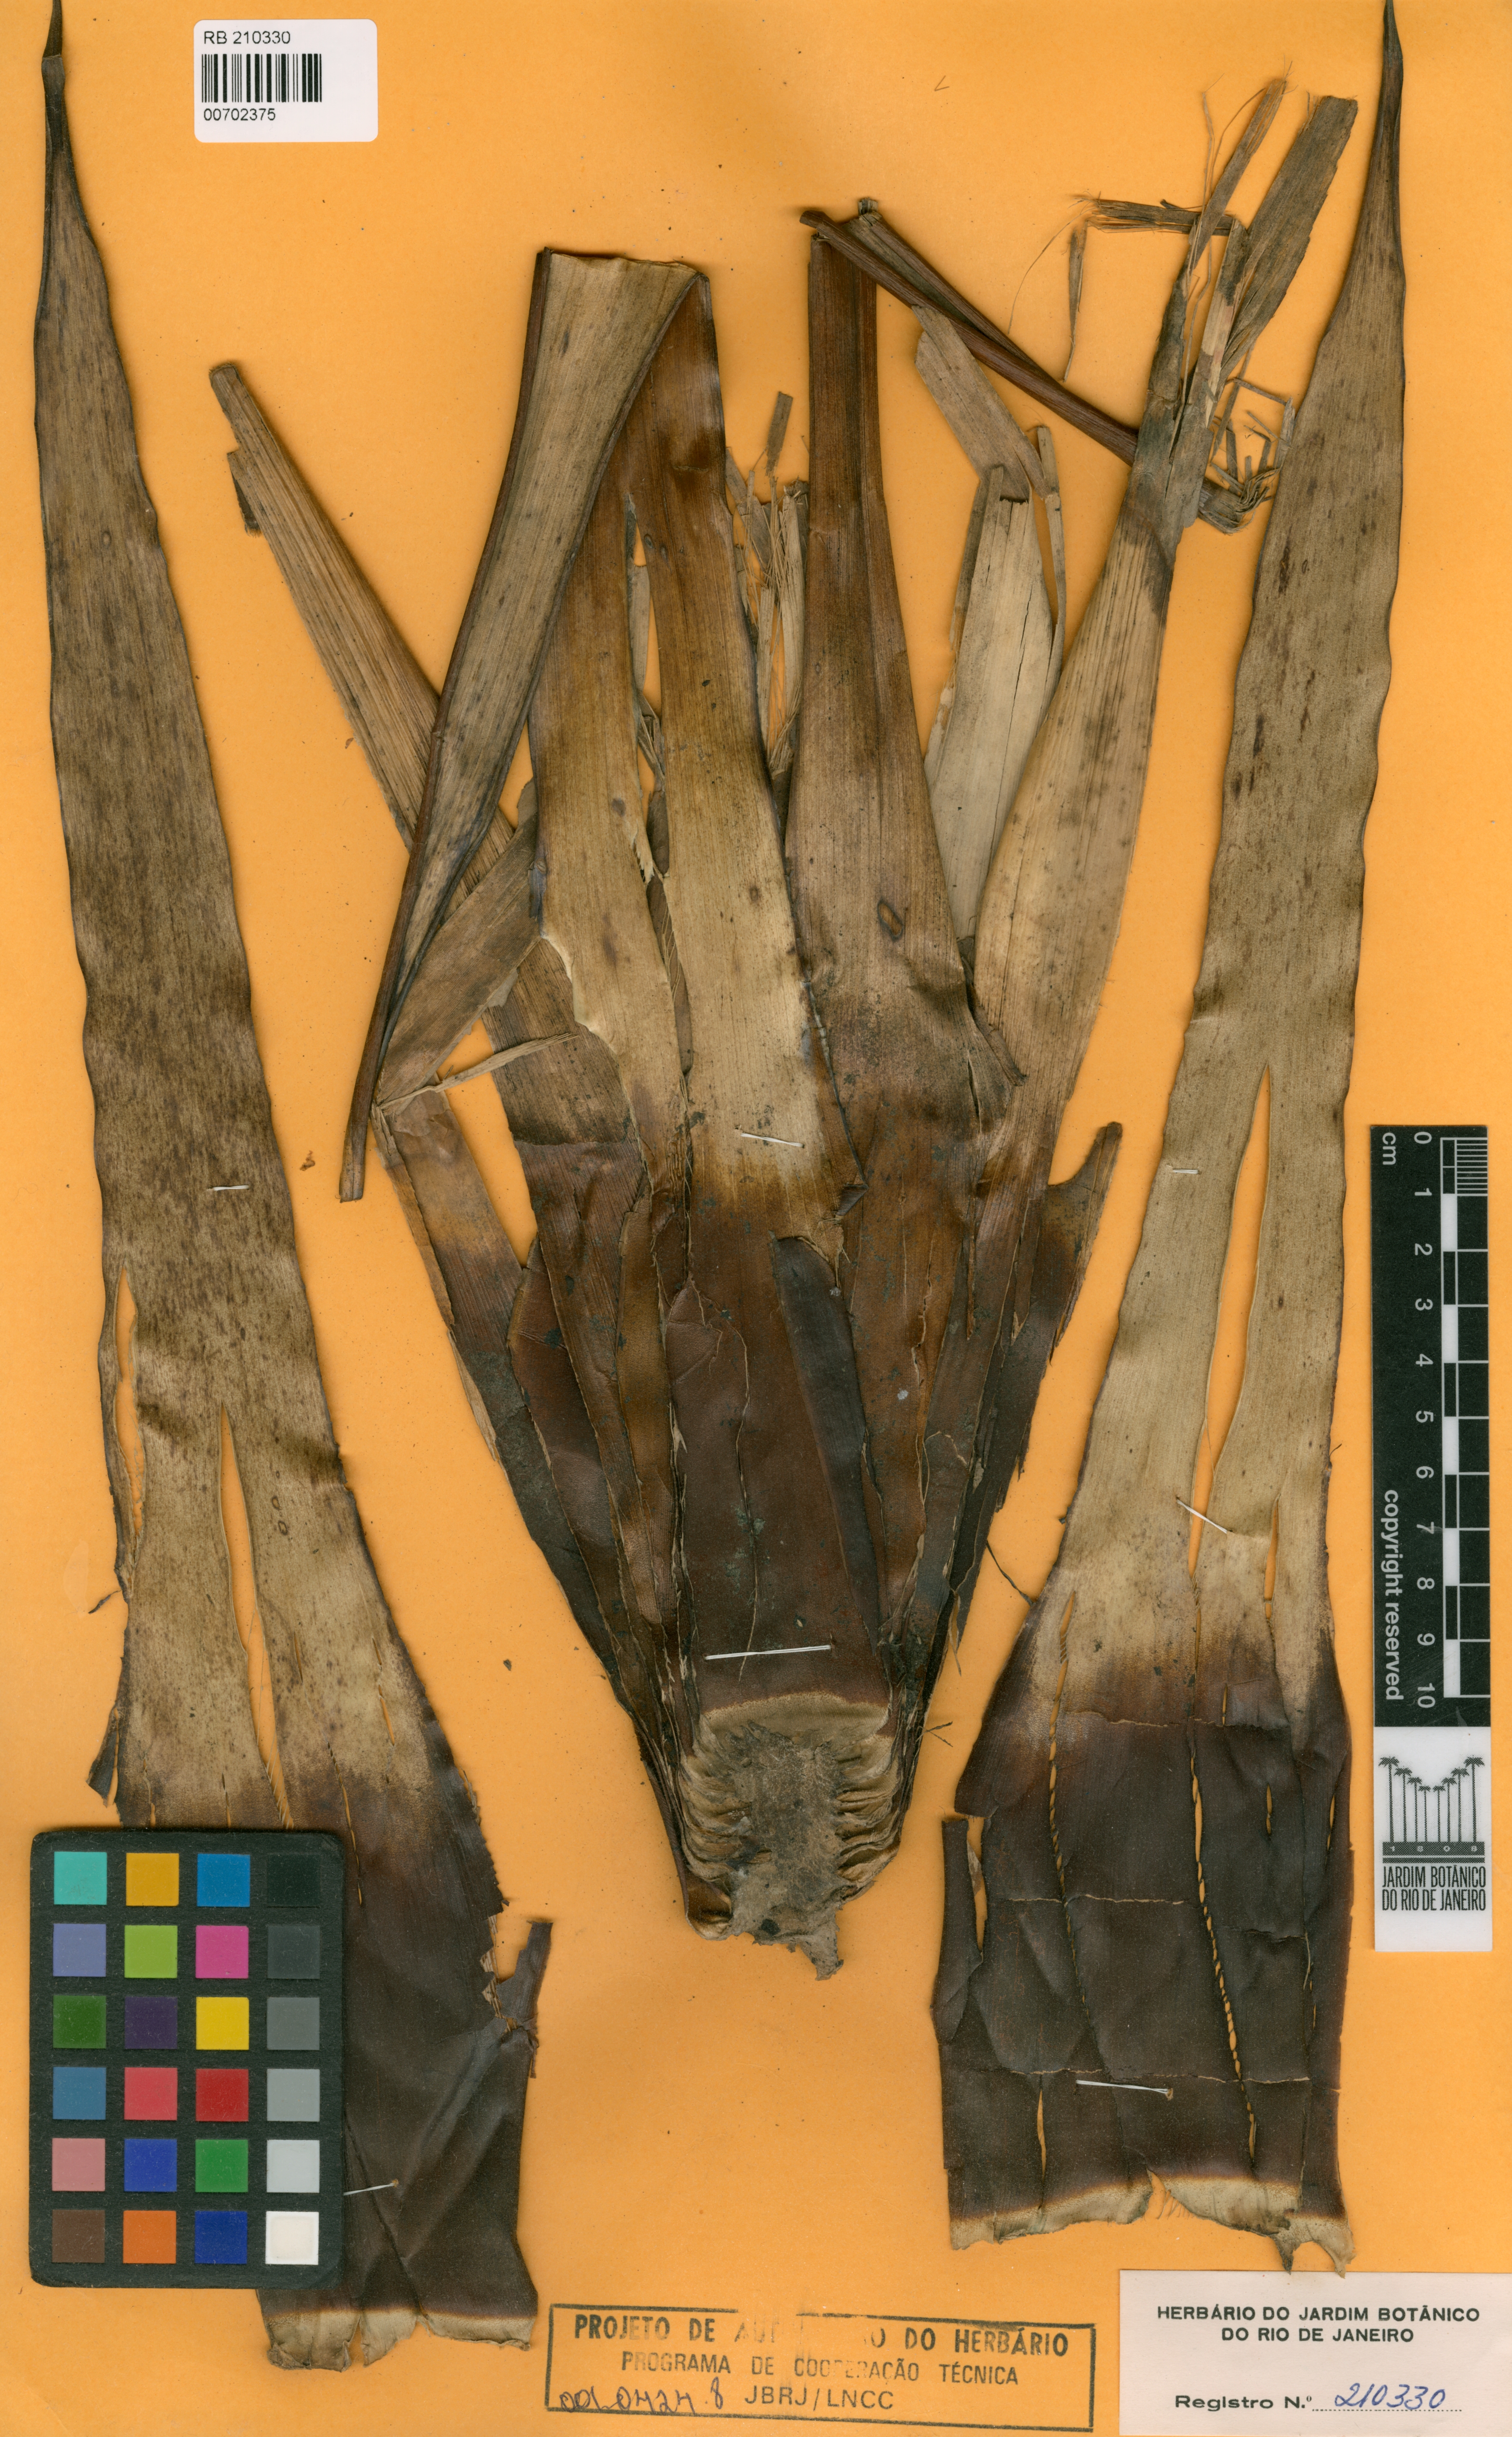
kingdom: Plantae
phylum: Tracheophyta
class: Liliopsida
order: Poales
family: Bromeliaceae
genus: Alcantarea
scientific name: Alcantarea martinellii
